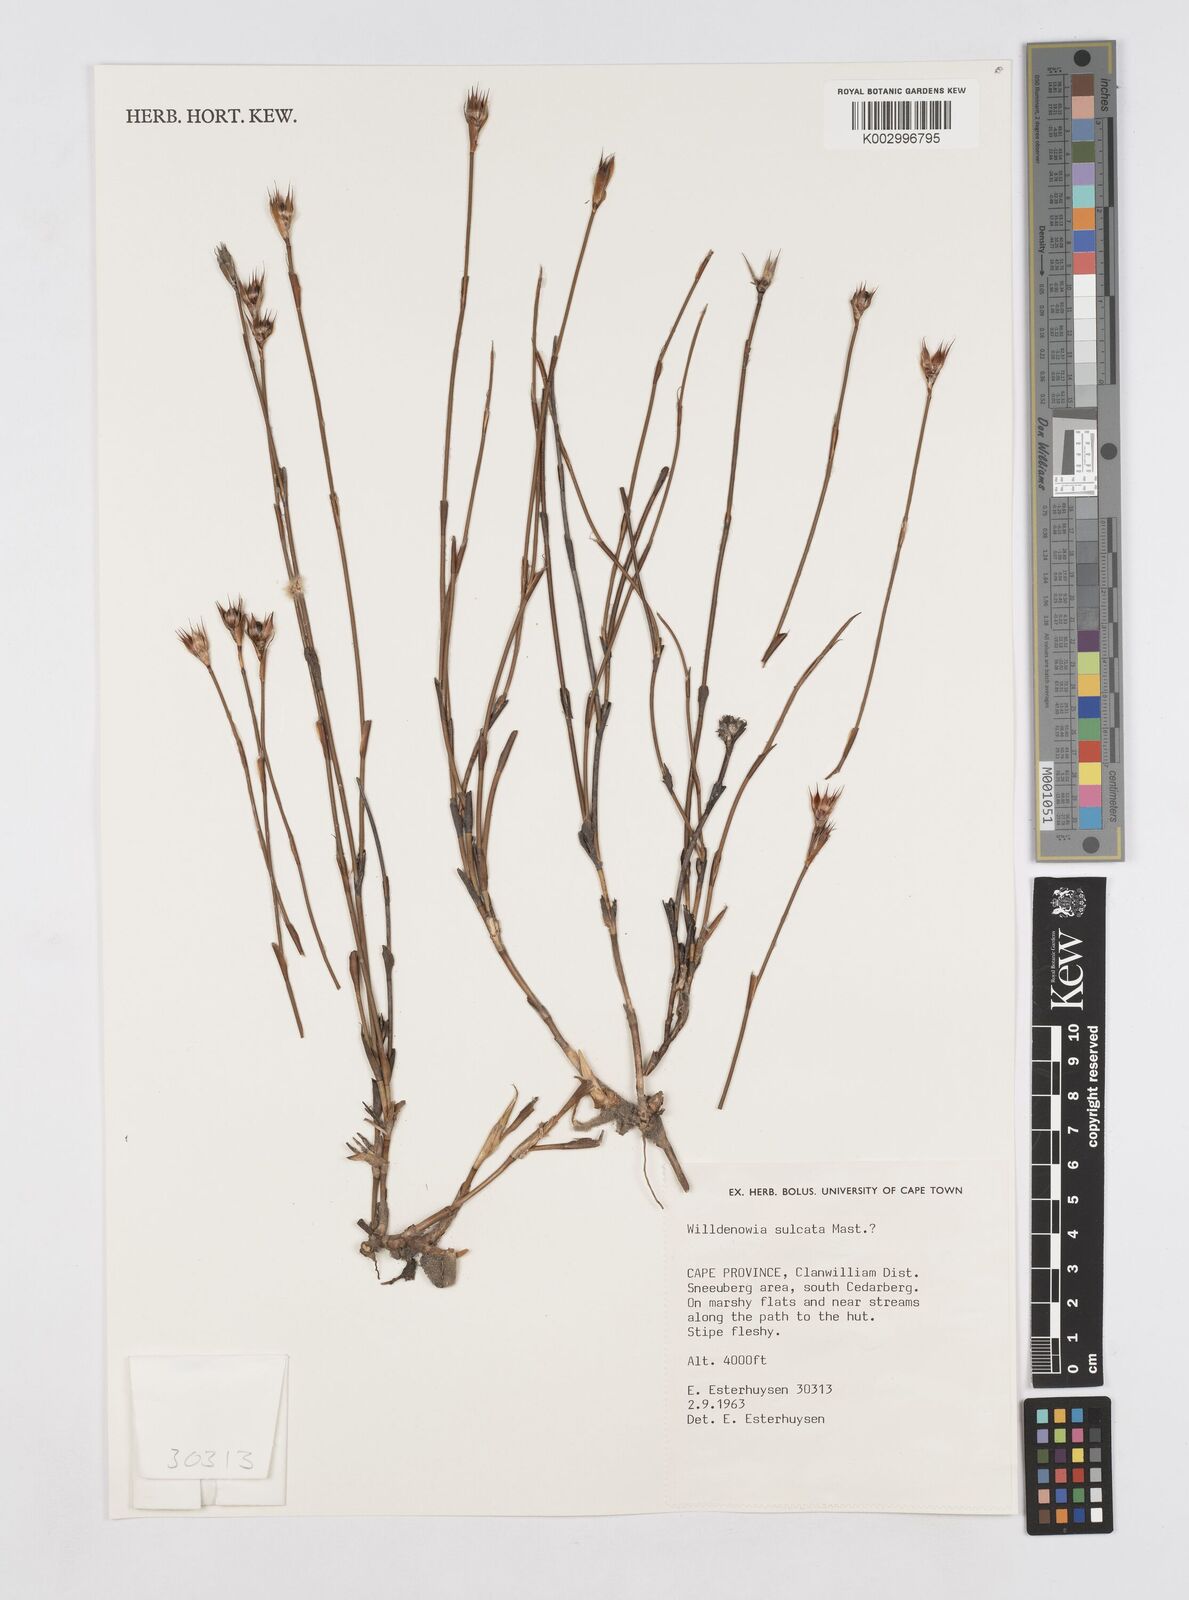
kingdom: Plantae
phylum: Tracheophyta
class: Liliopsida
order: Poales
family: Restionaceae
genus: Willdenowia
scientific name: Willdenowia sulcata
